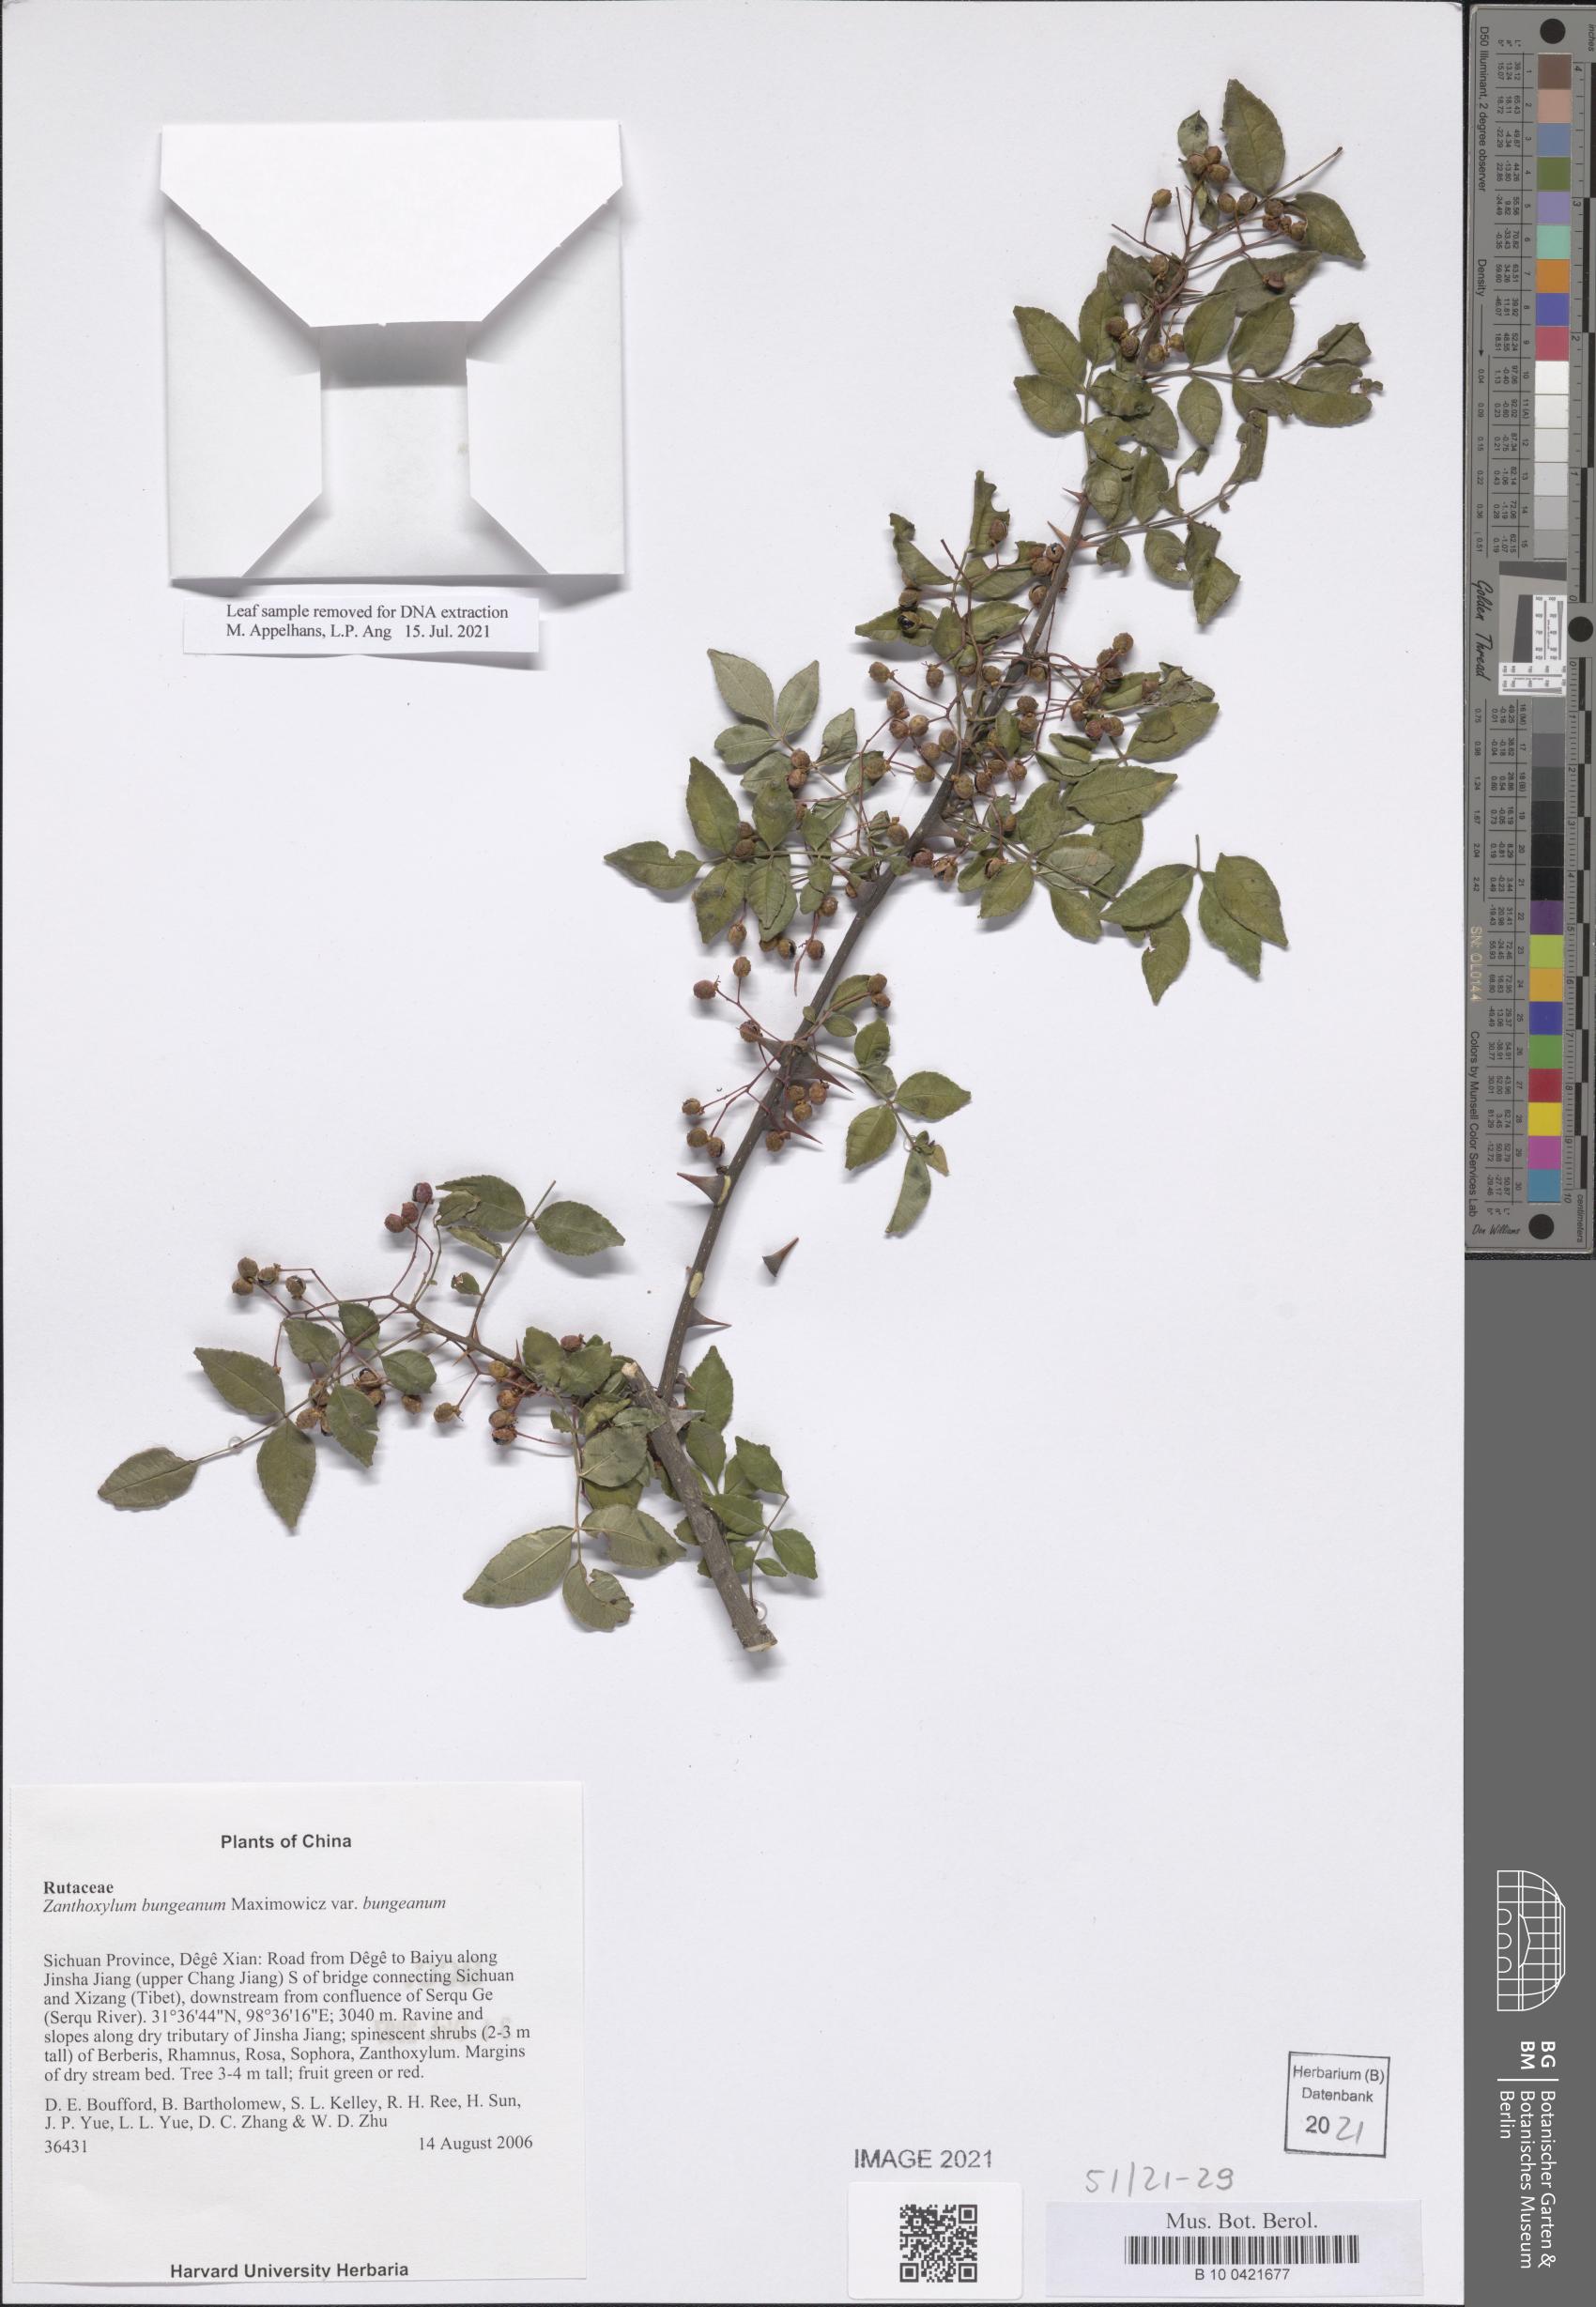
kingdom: Plantae
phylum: Tracheophyta
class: Magnoliopsida
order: Sapindales
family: Rutaceae
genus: Zanthoxylum
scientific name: Zanthoxylum bungeanum
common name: Sichuan-pepper
